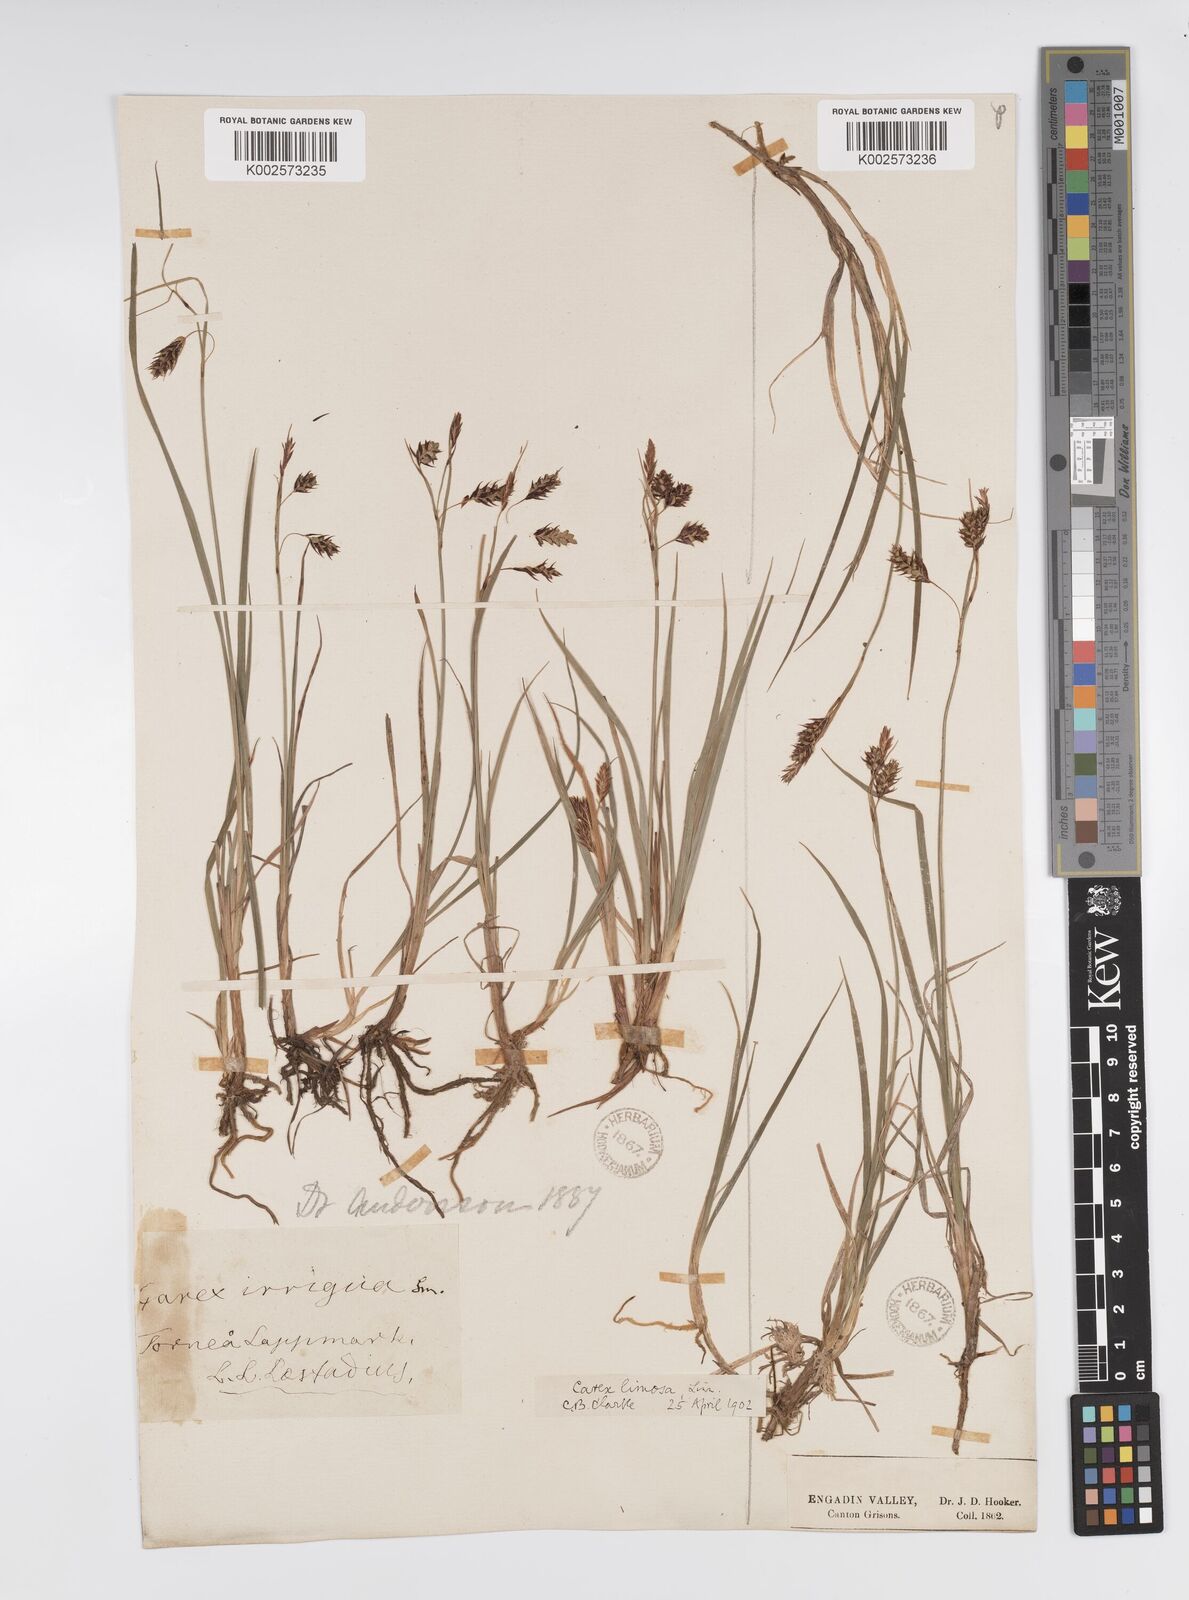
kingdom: Plantae
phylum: Tracheophyta
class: Liliopsida
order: Poales
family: Cyperaceae
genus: Carex
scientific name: Carex magellanica
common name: Bog sedge
